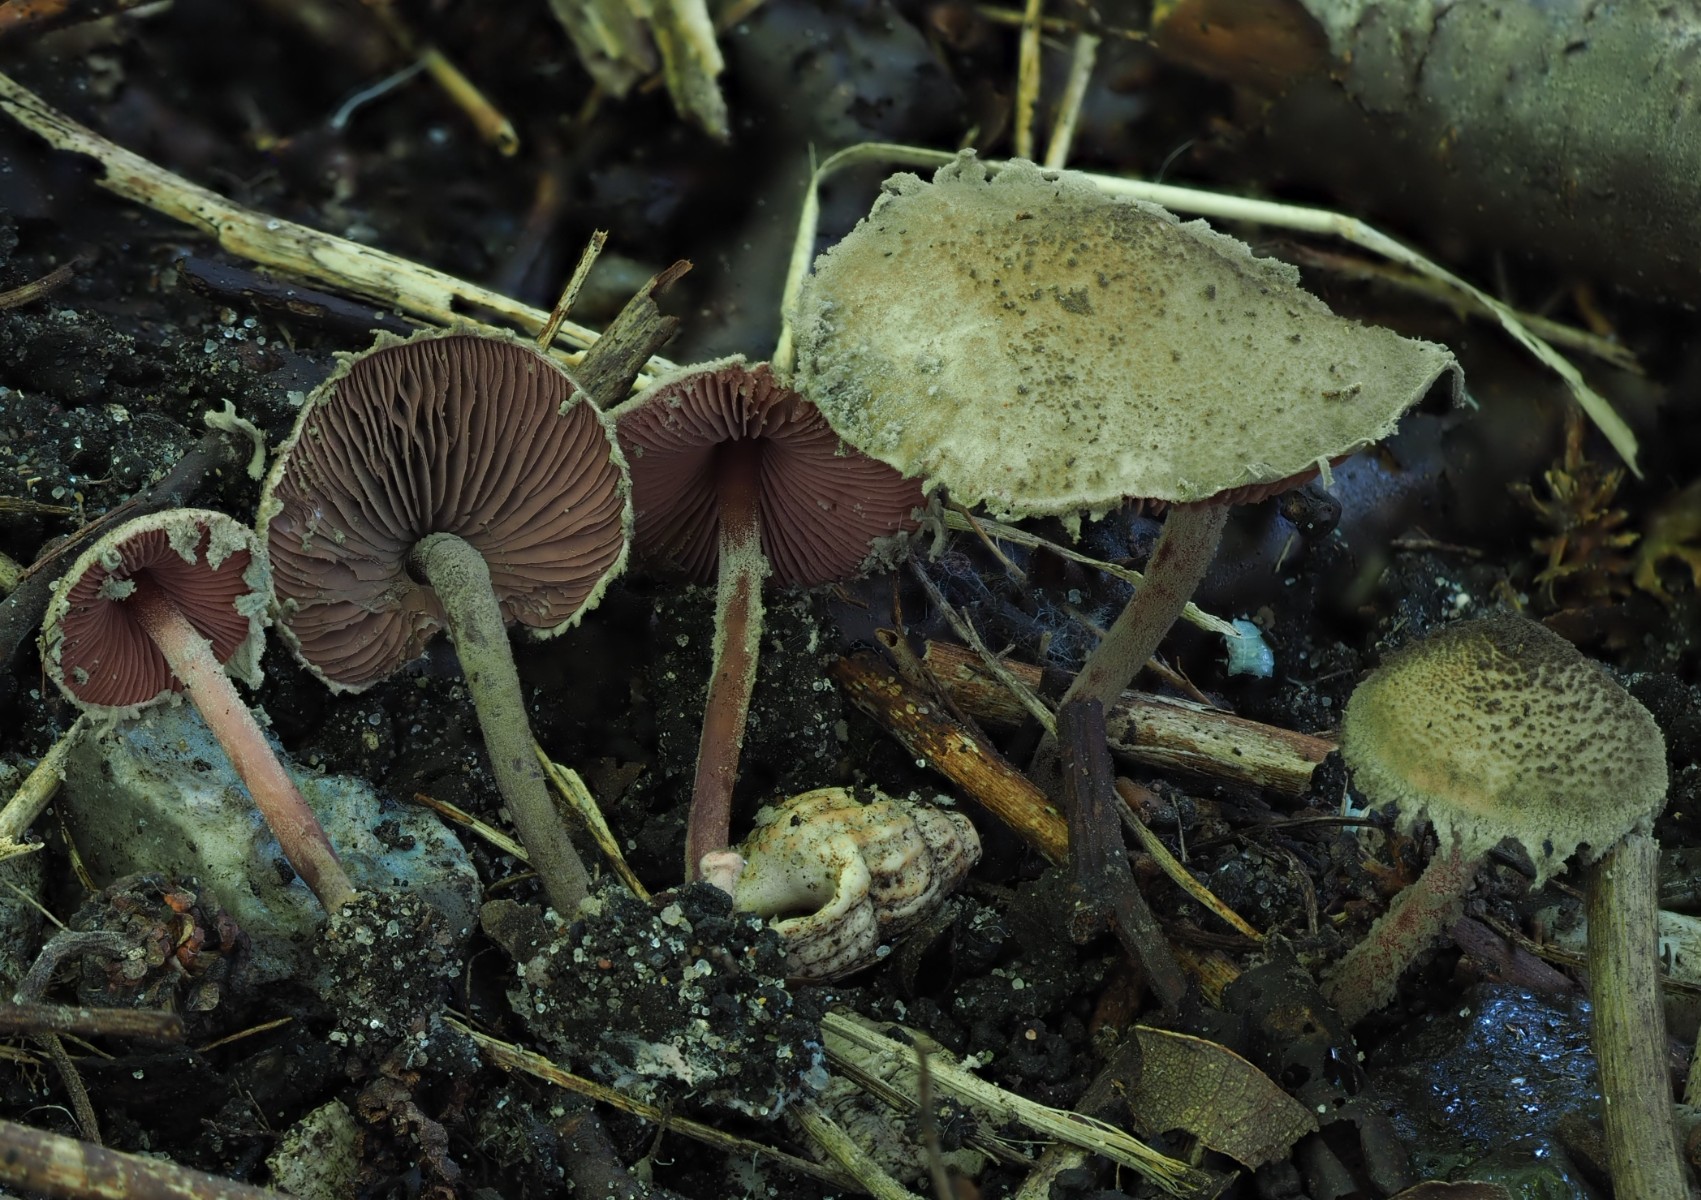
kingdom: Fungi
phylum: Basidiomycota
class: Agaricomycetes
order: Agaricales
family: Agaricaceae
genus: Melanophyllum
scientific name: Melanophyllum haematospermum
